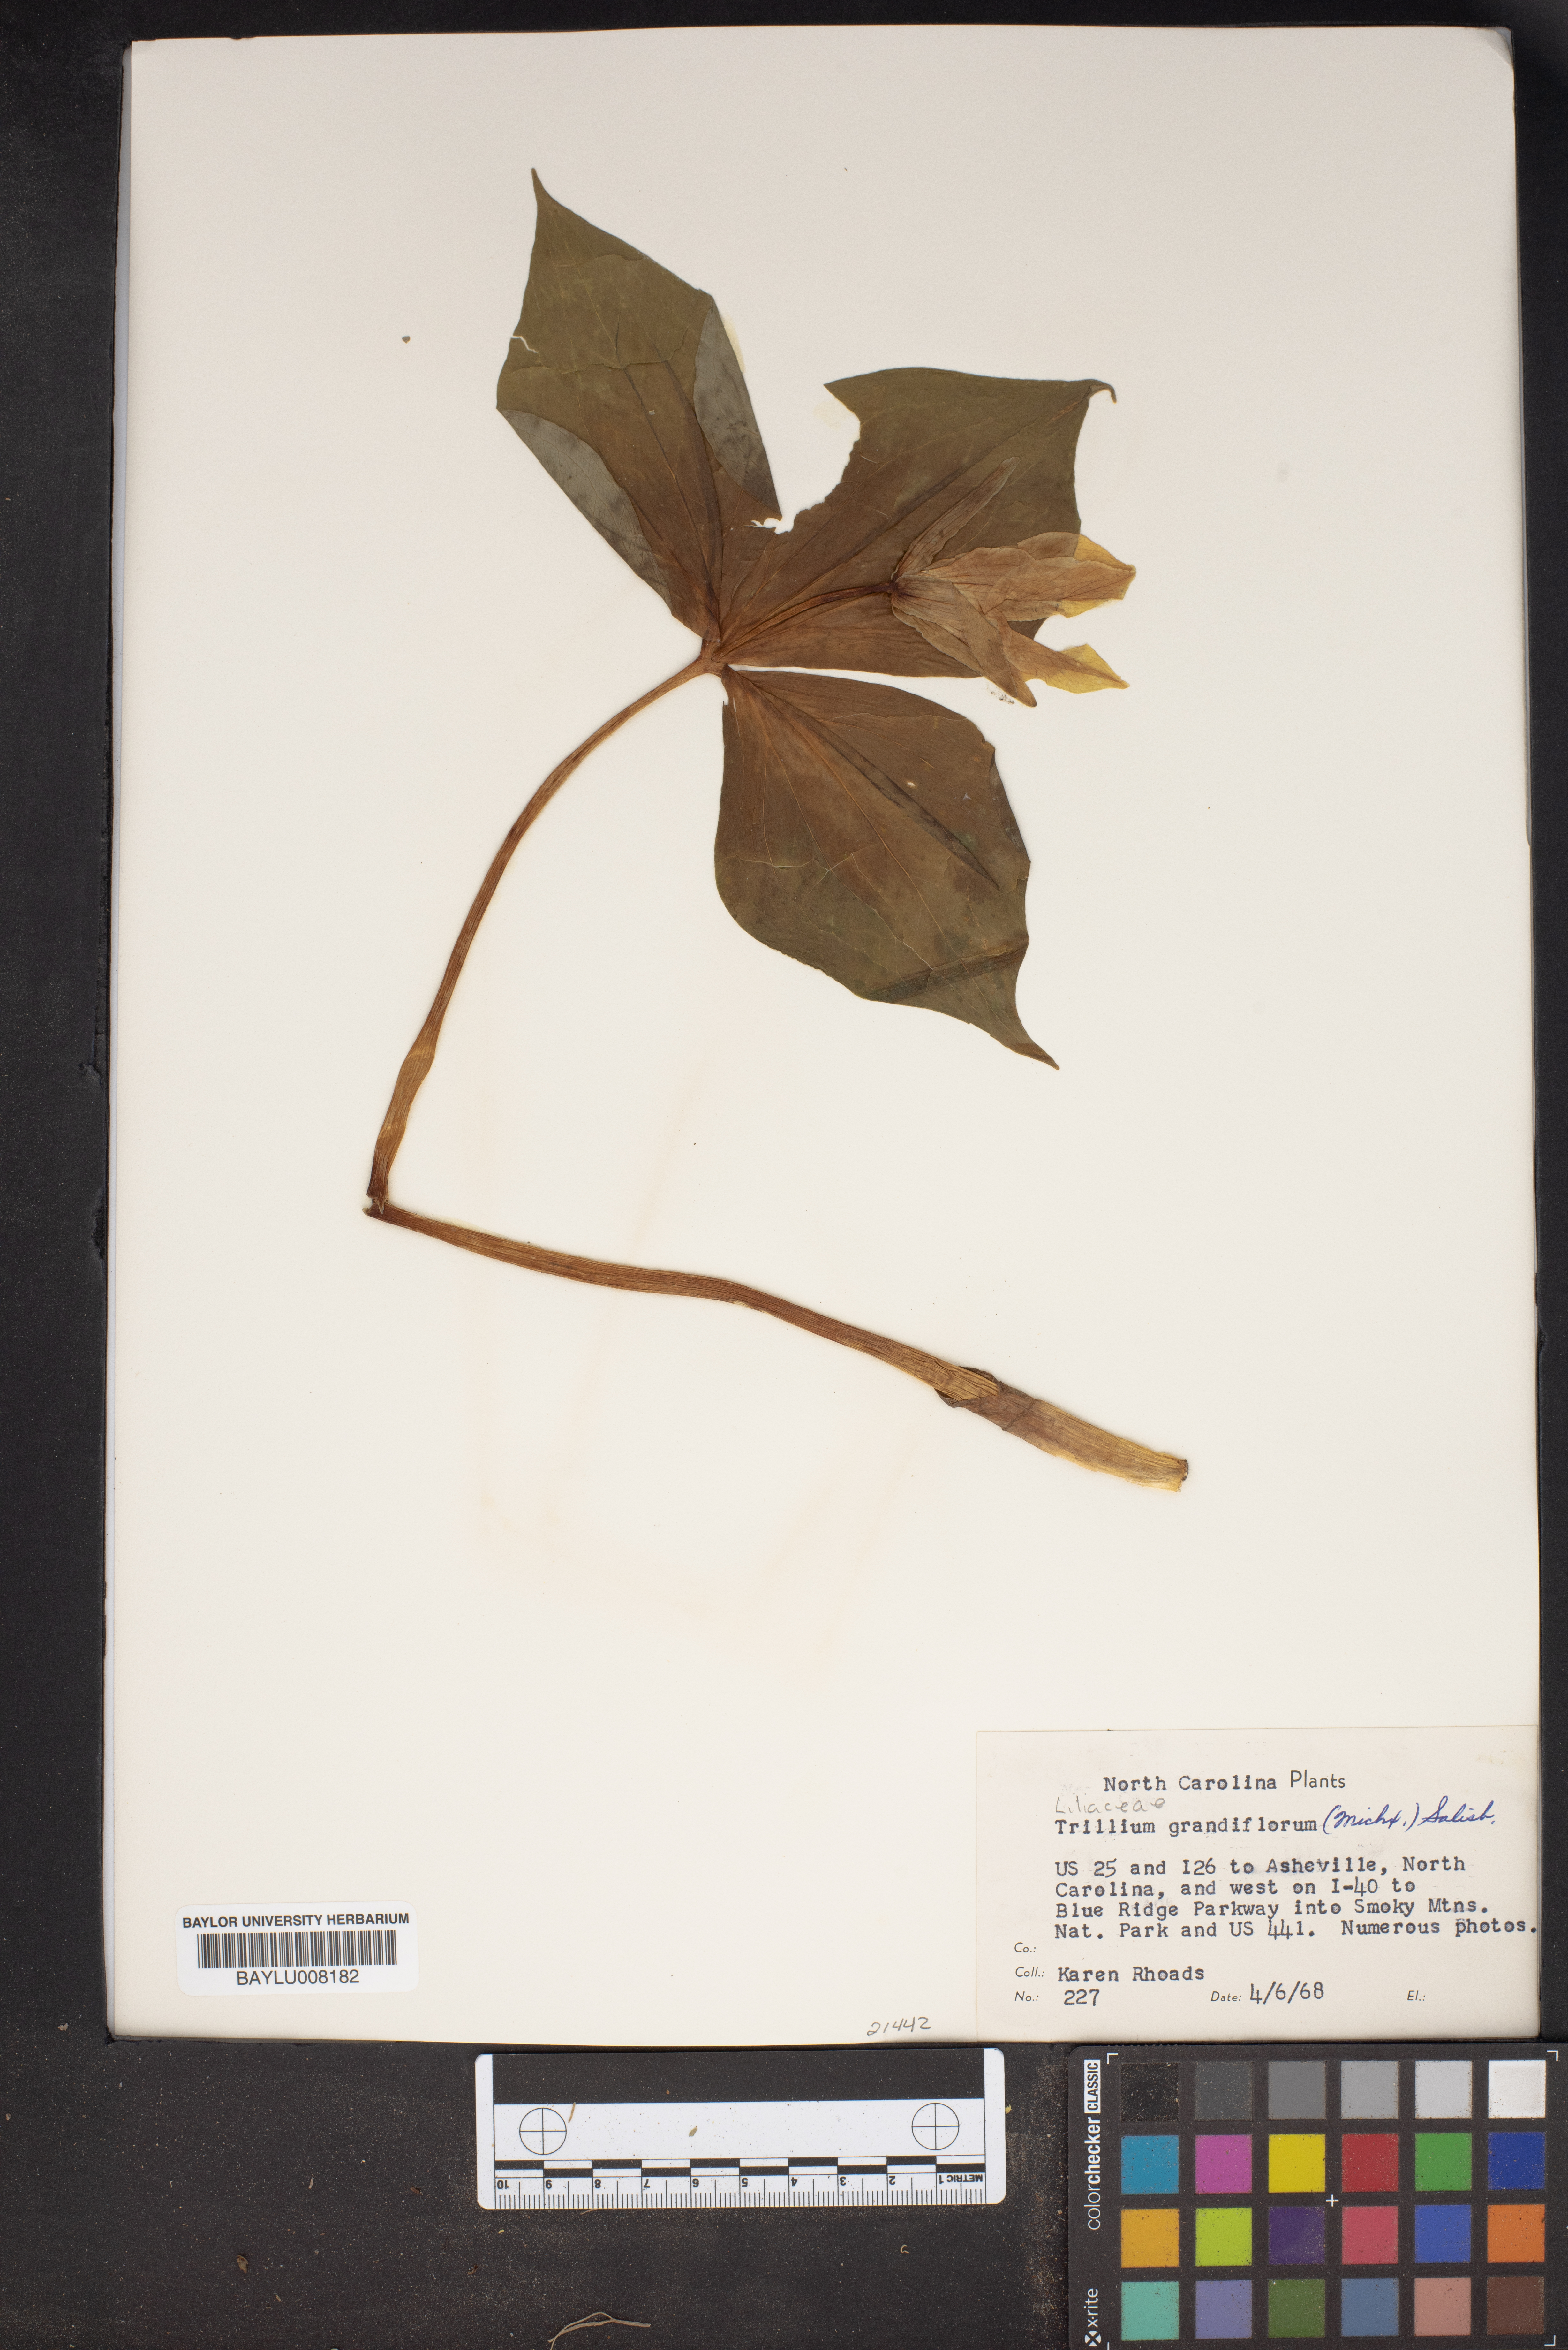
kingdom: Plantae
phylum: Tracheophyta
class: Liliopsida
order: Liliales
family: Melanthiaceae
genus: Trillium
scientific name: Trillium grandiflorum
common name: Great white trillium
